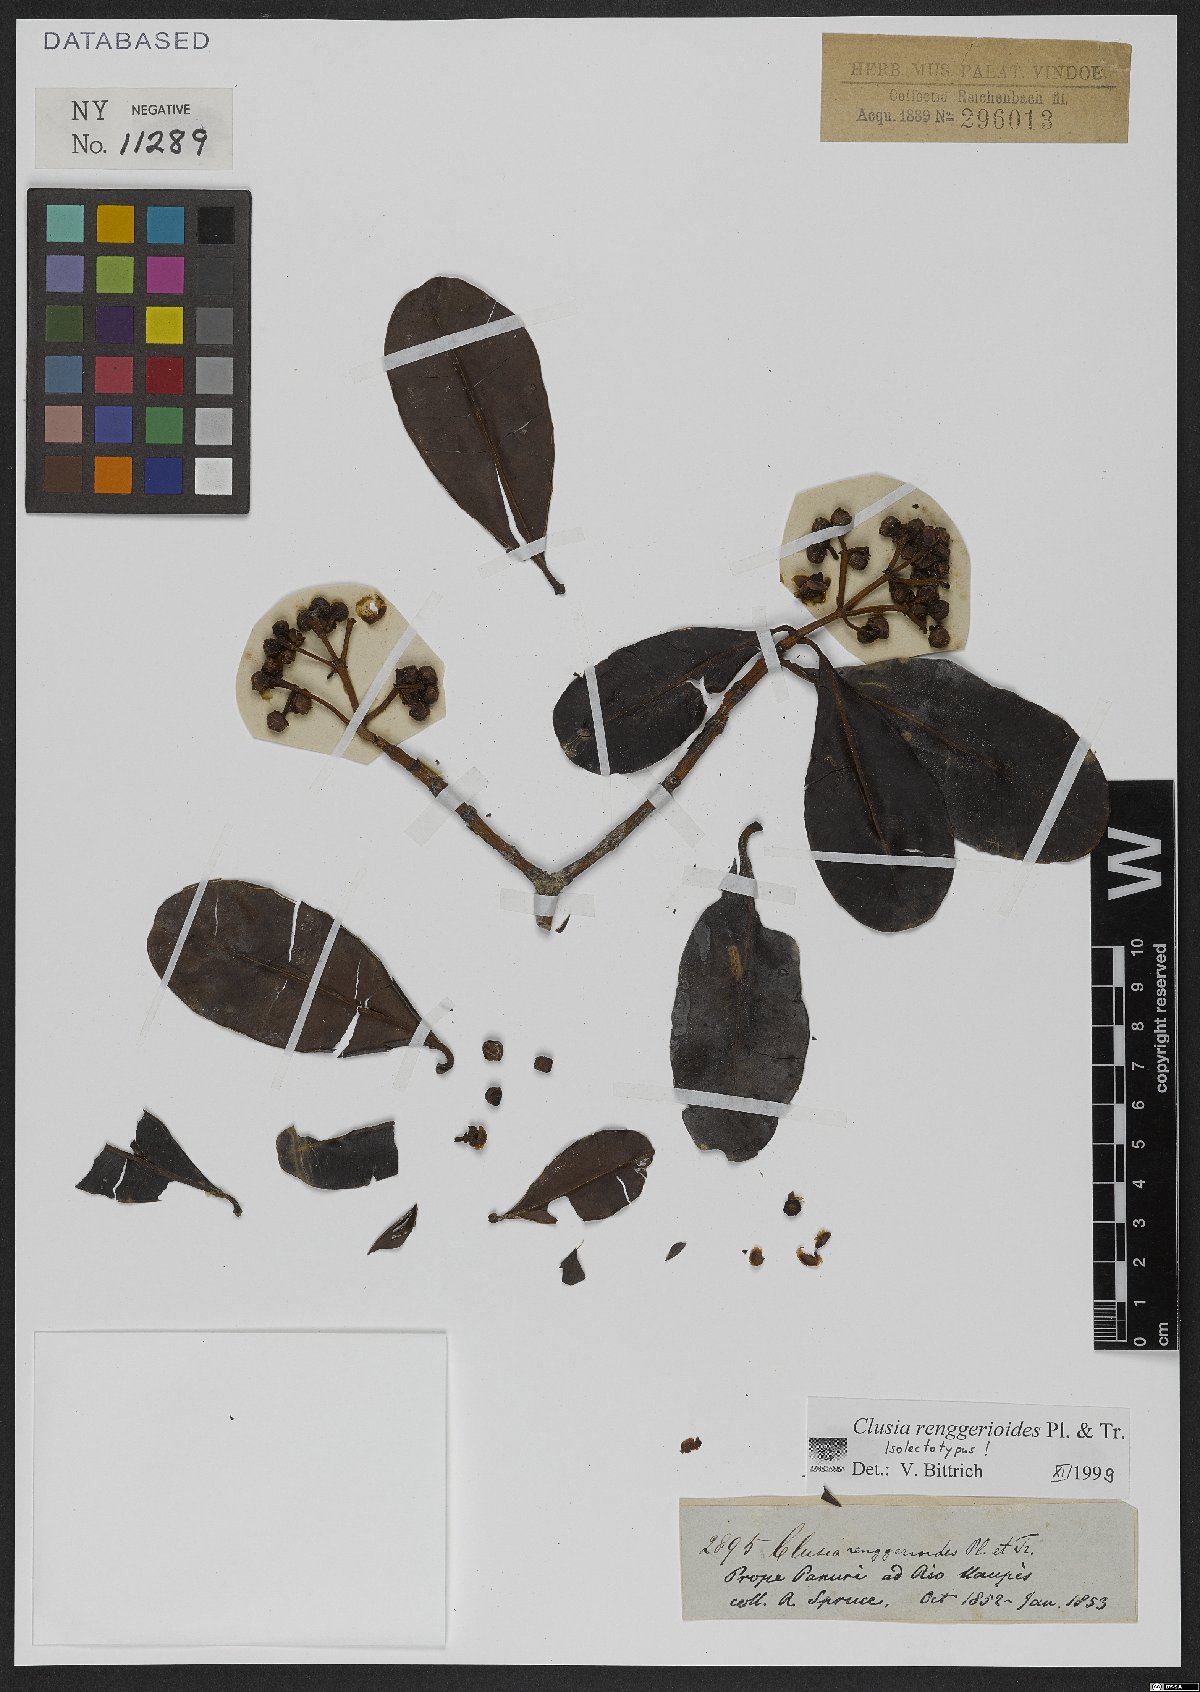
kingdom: Plantae
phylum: Tracheophyta
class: Magnoliopsida
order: Malpighiales
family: Clusiaceae
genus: Clusia
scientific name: Clusia renggerioides
